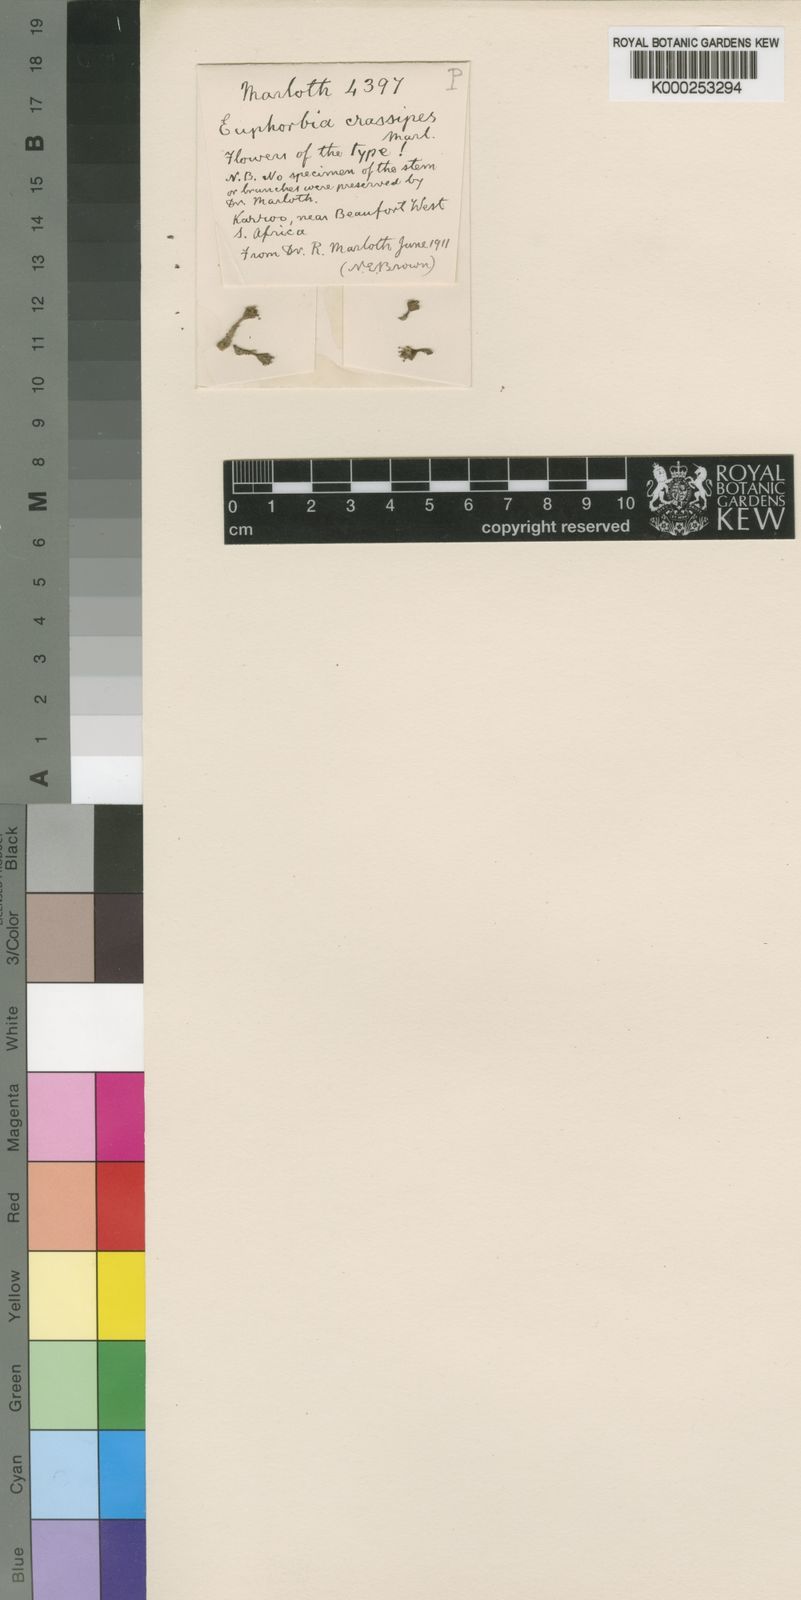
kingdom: Plantae
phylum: Tracheophyta
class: Magnoliopsida
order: Malpighiales
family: Euphorbiaceae
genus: Euphorbia
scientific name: Euphorbia crassipes
